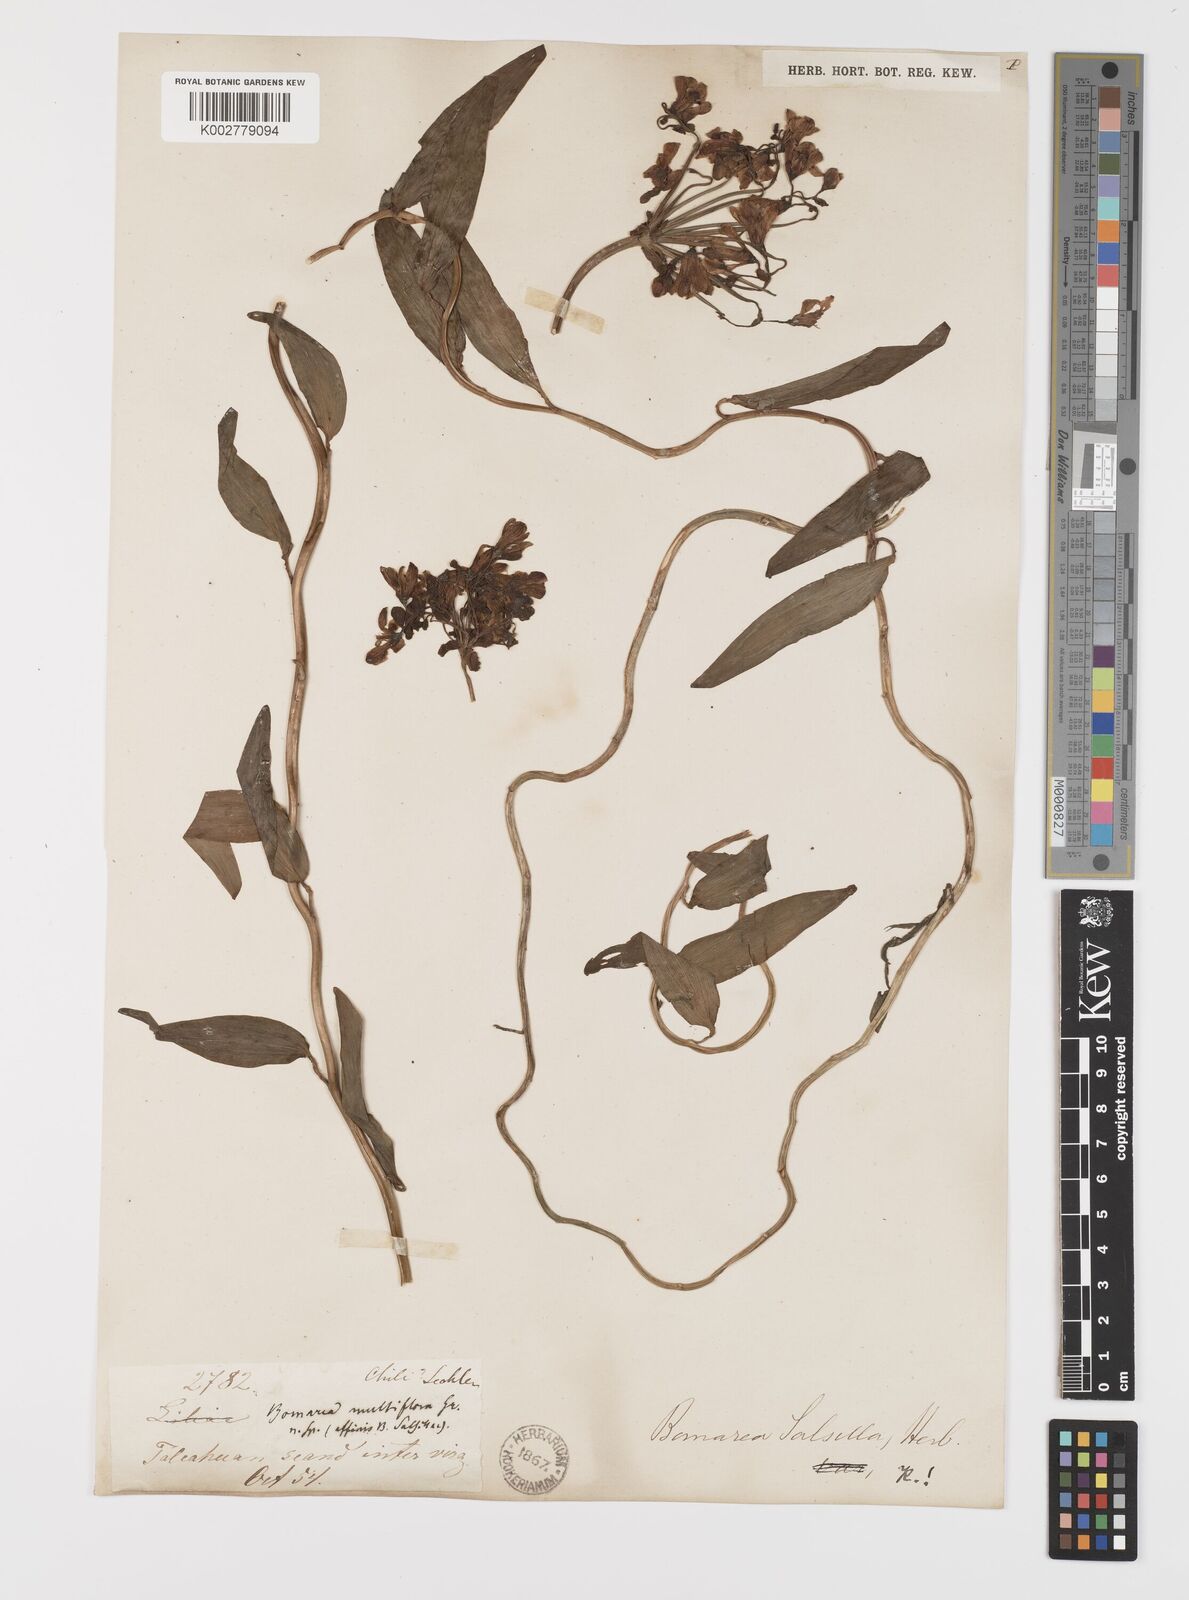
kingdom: Plantae
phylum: Tracheophyta
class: Liliopsida
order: Liliales
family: Alstroemeriaceae
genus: Bomarea
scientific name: Bomarea edulis
